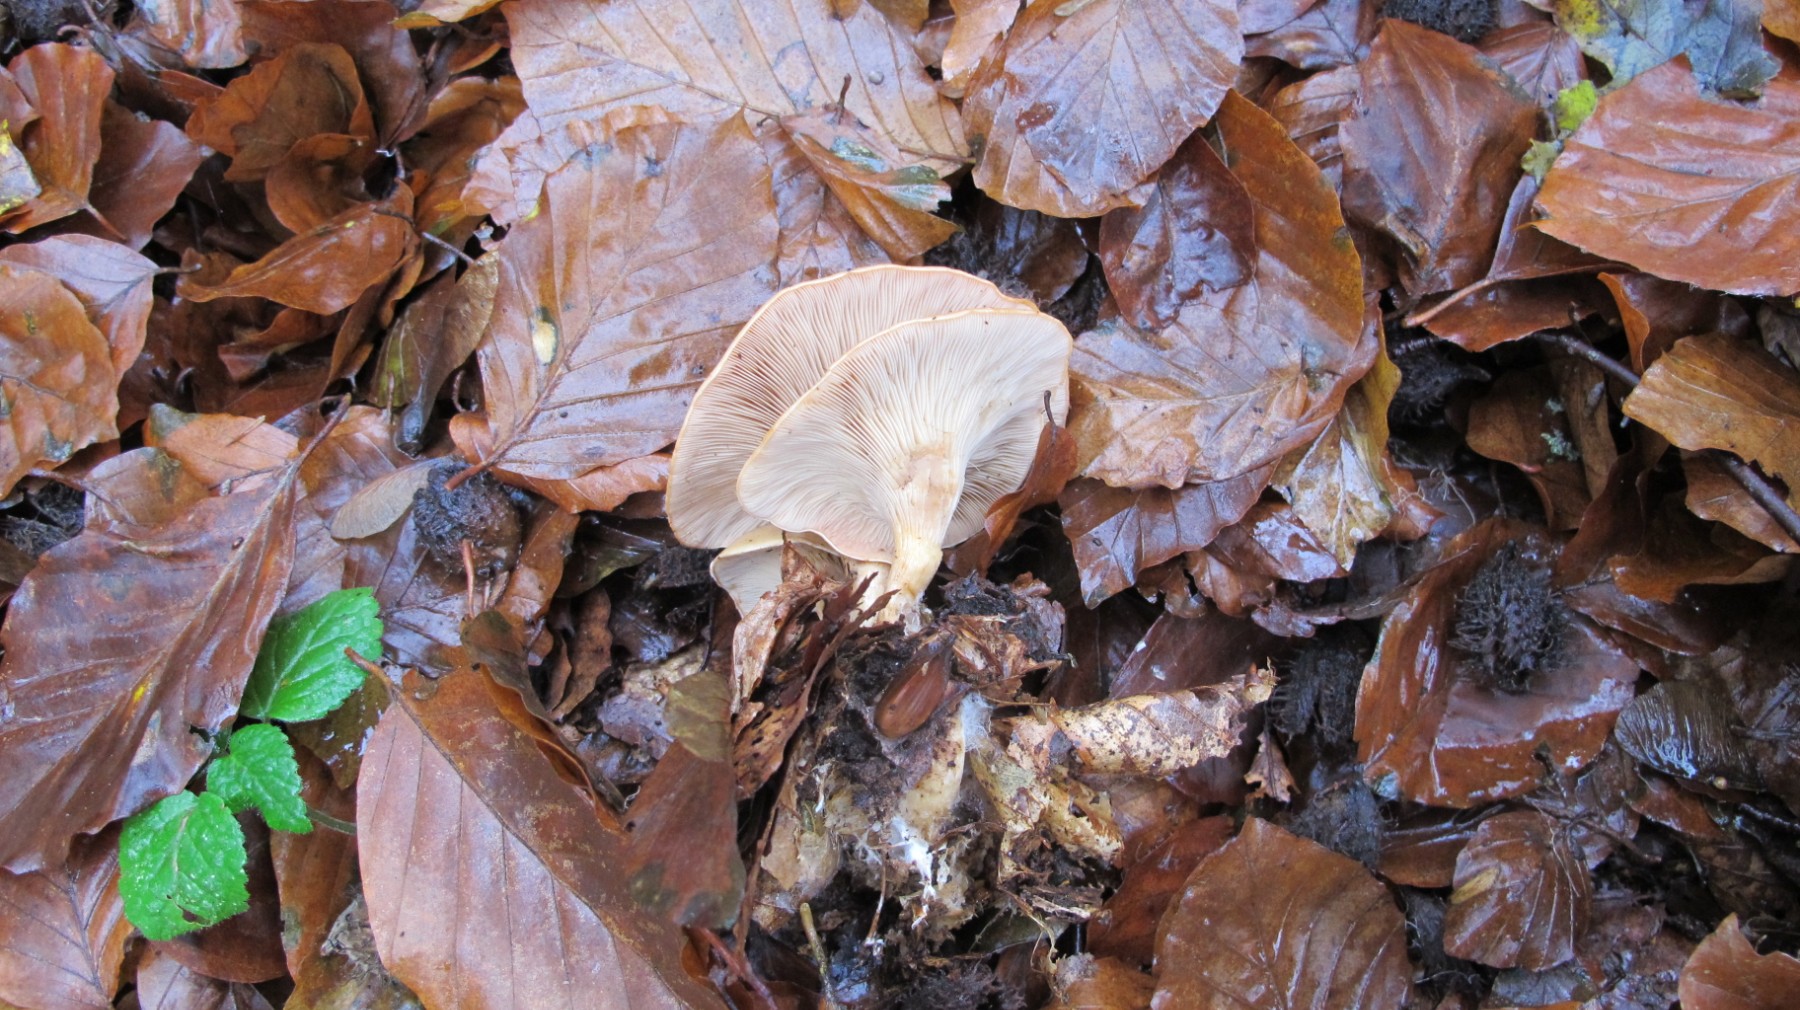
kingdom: Fungi
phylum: Basidiomycota
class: Agaricomycetes
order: Agaricales
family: Tricholomataceae
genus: Paralepista
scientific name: Paralepista
